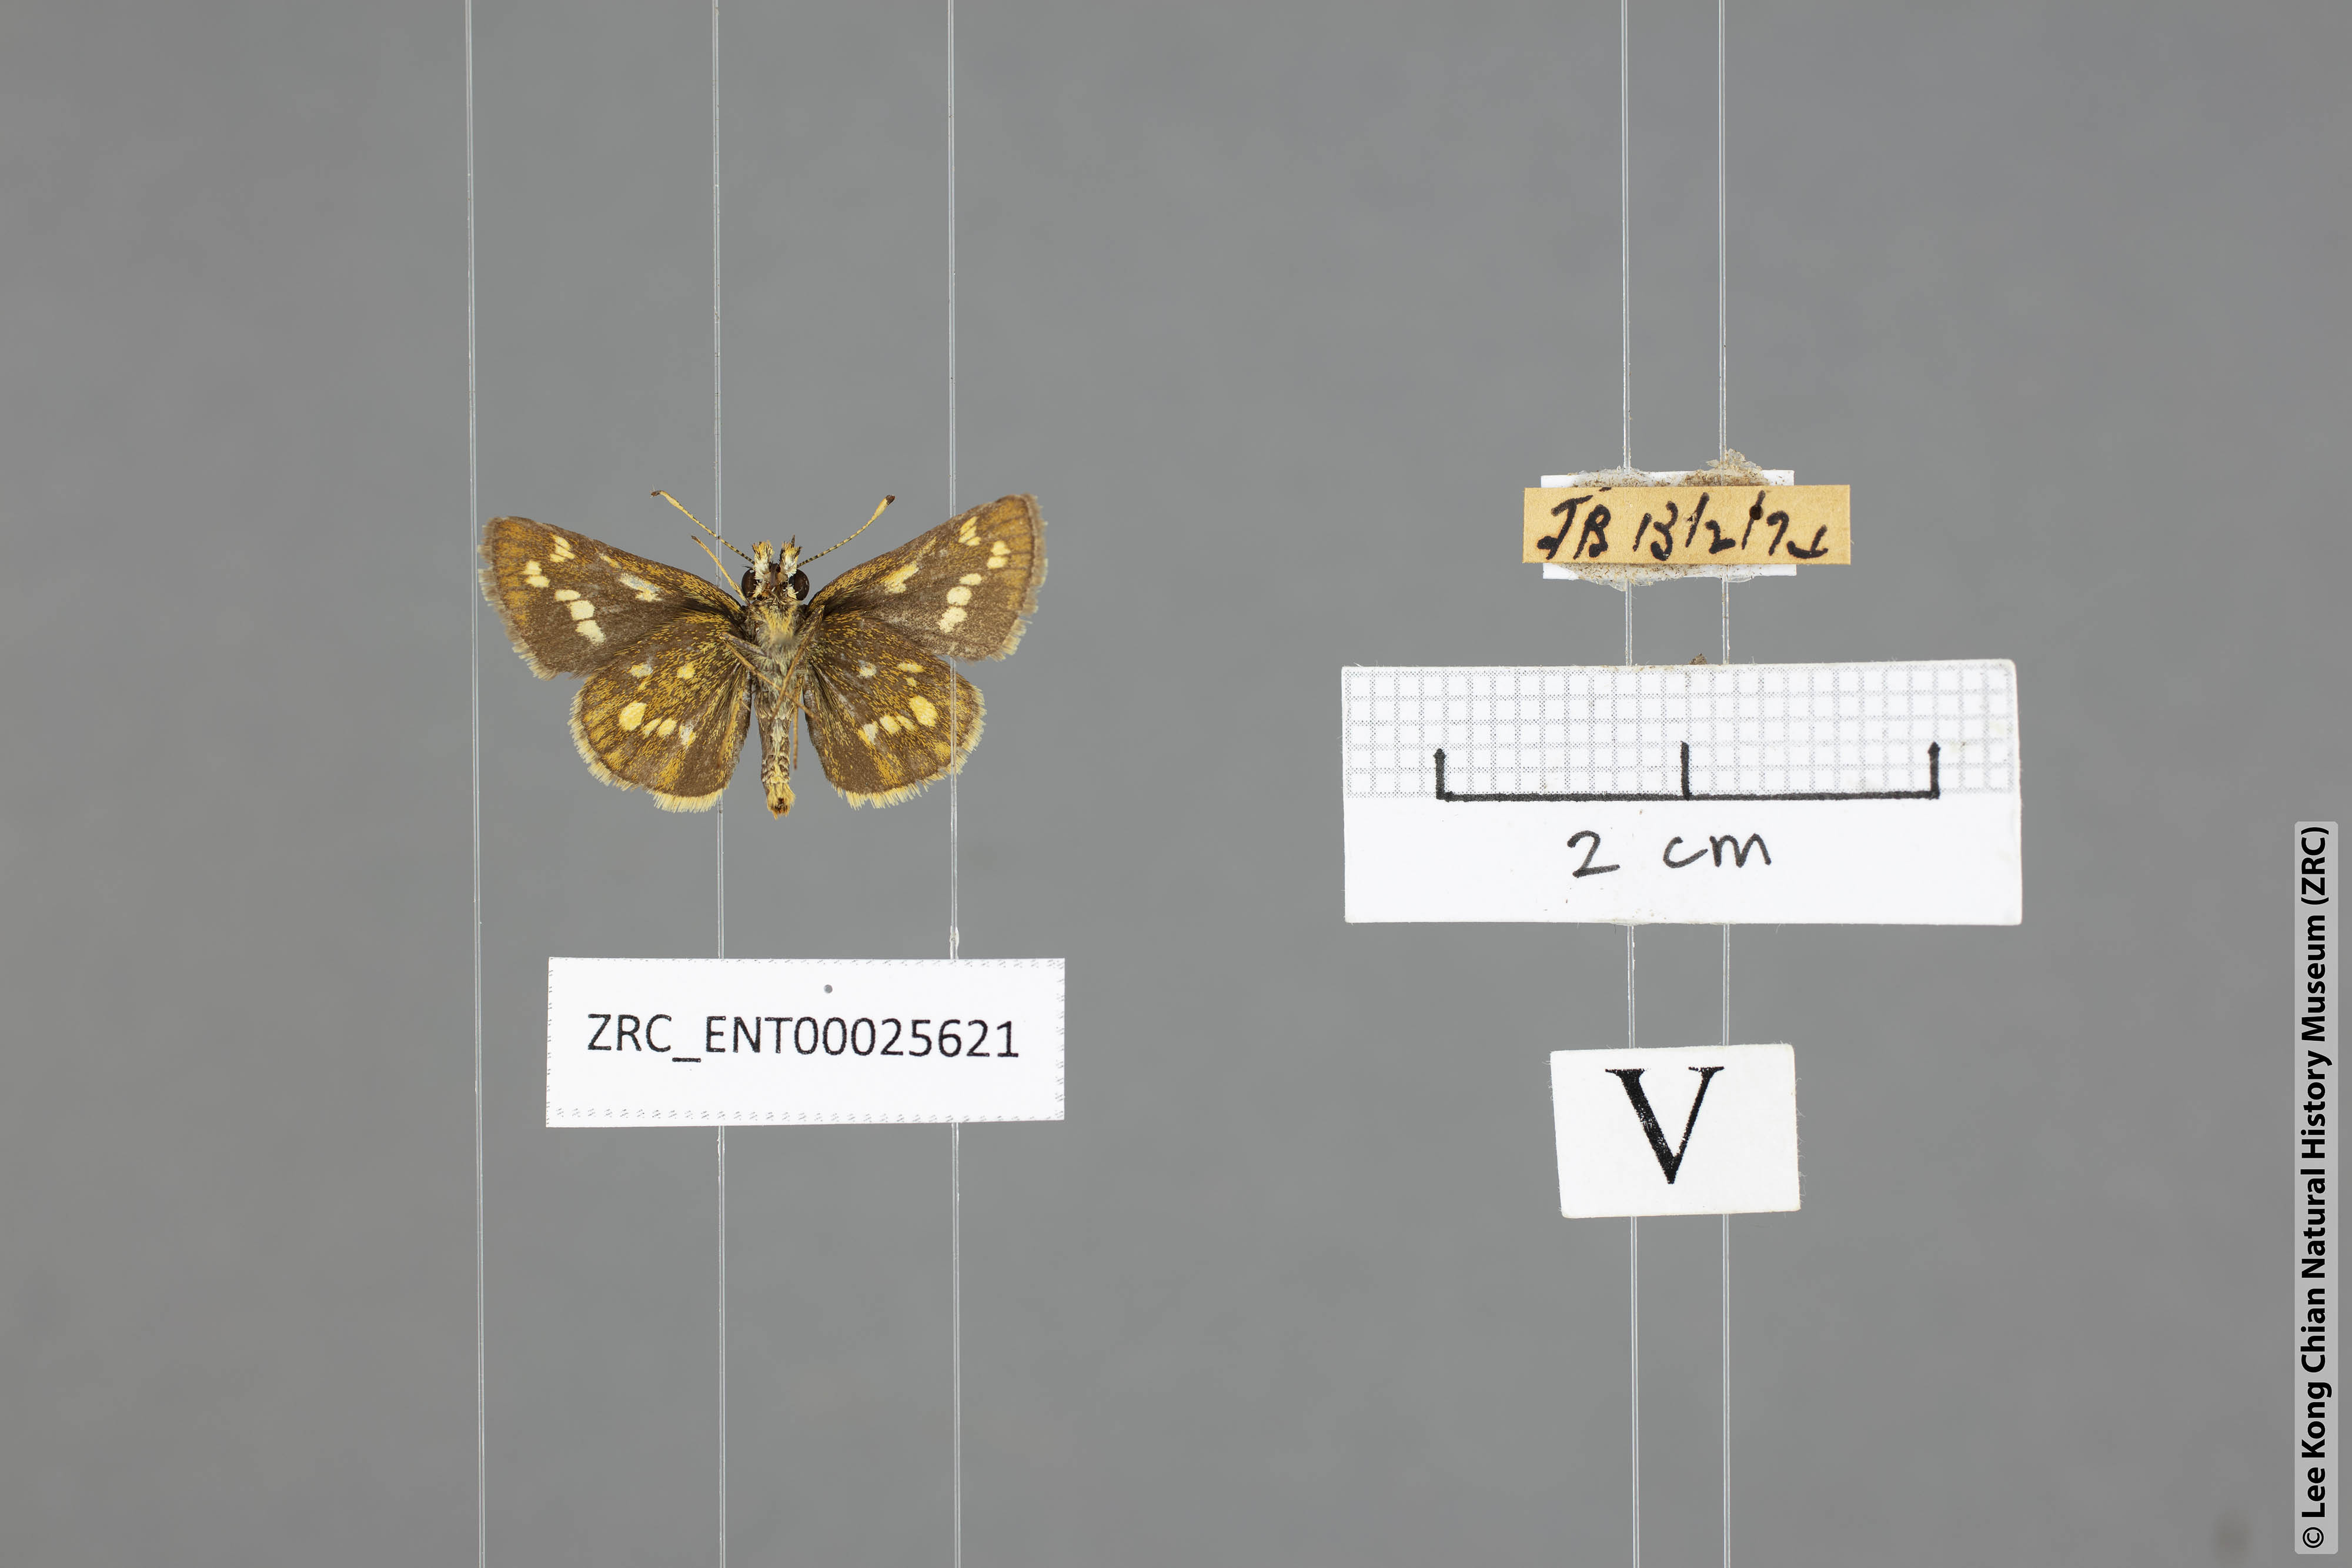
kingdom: Animalia
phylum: Arthropoda
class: Insecta
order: Lepidoptera
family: Hesperiidae
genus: Taractrocera
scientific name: Taractrocera ardonia
